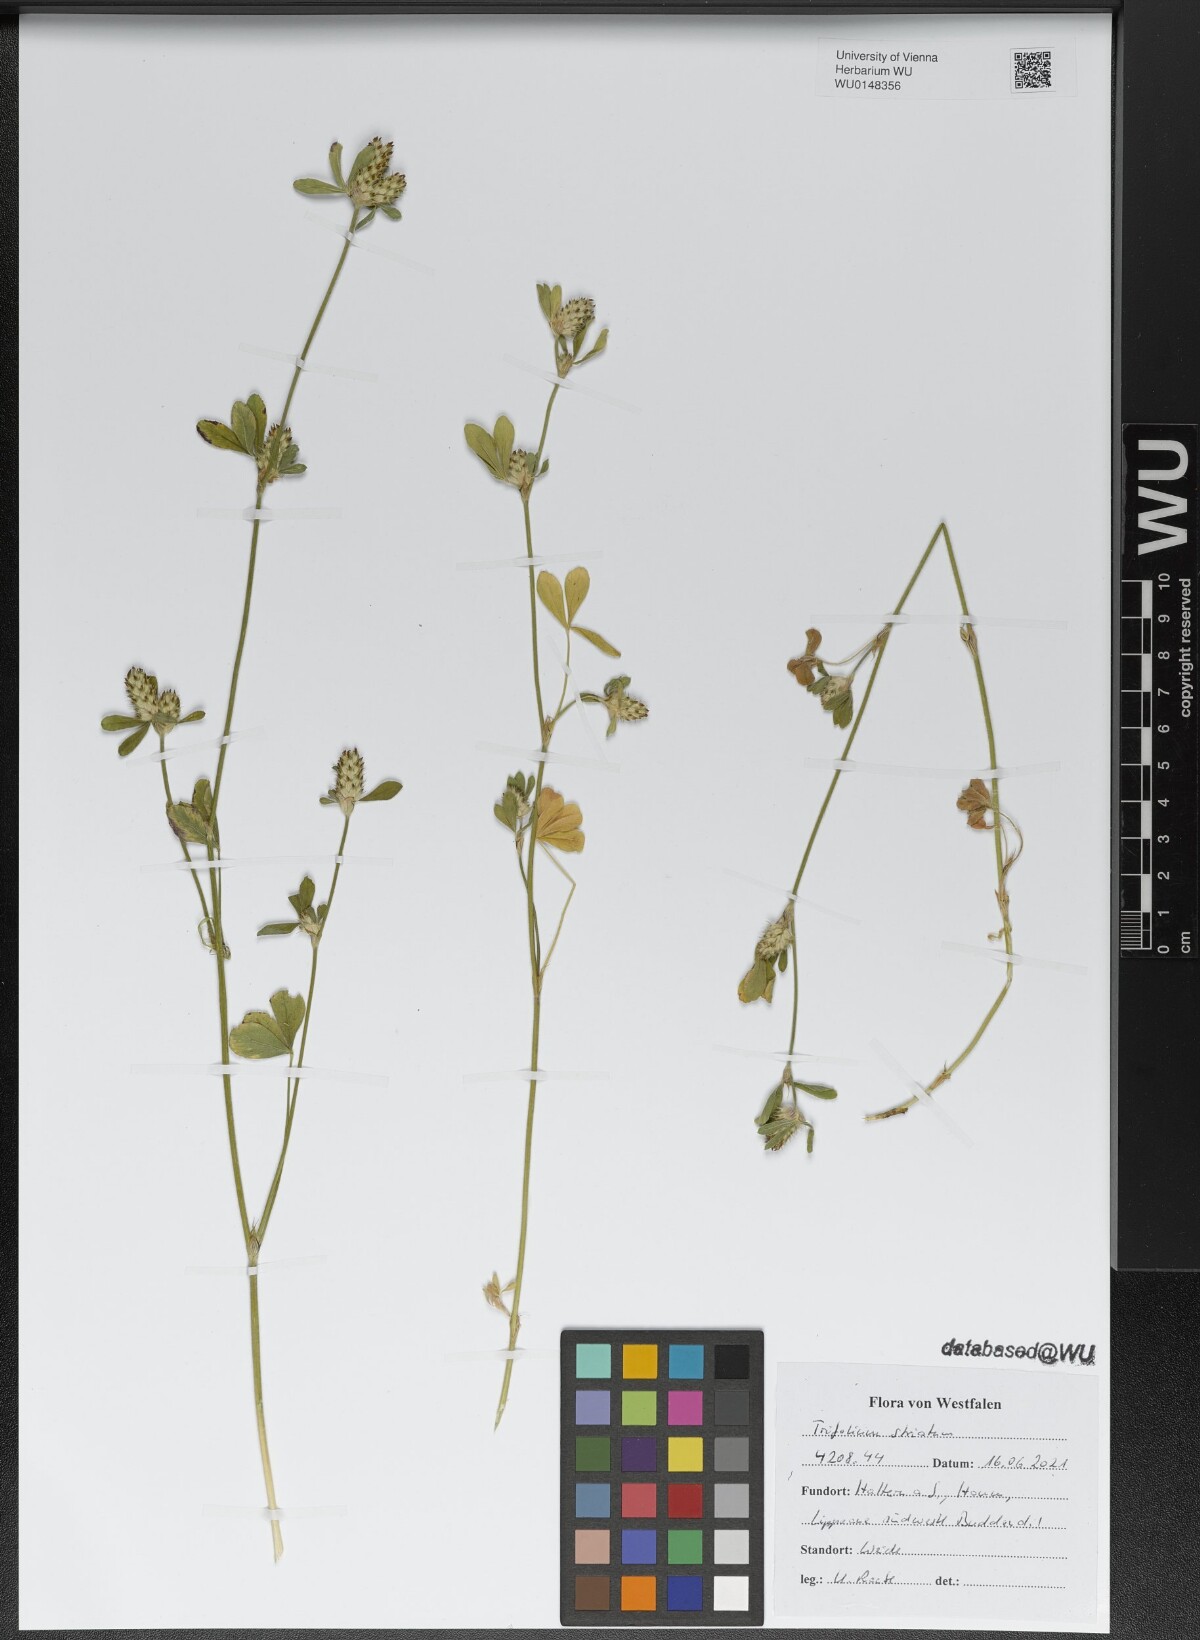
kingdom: Plantae
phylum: Tracheophyta
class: Magnoliopsida
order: Fabales
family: Fabaceae
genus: Trifolium
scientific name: Trifolium striatum
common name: Knotted clover
